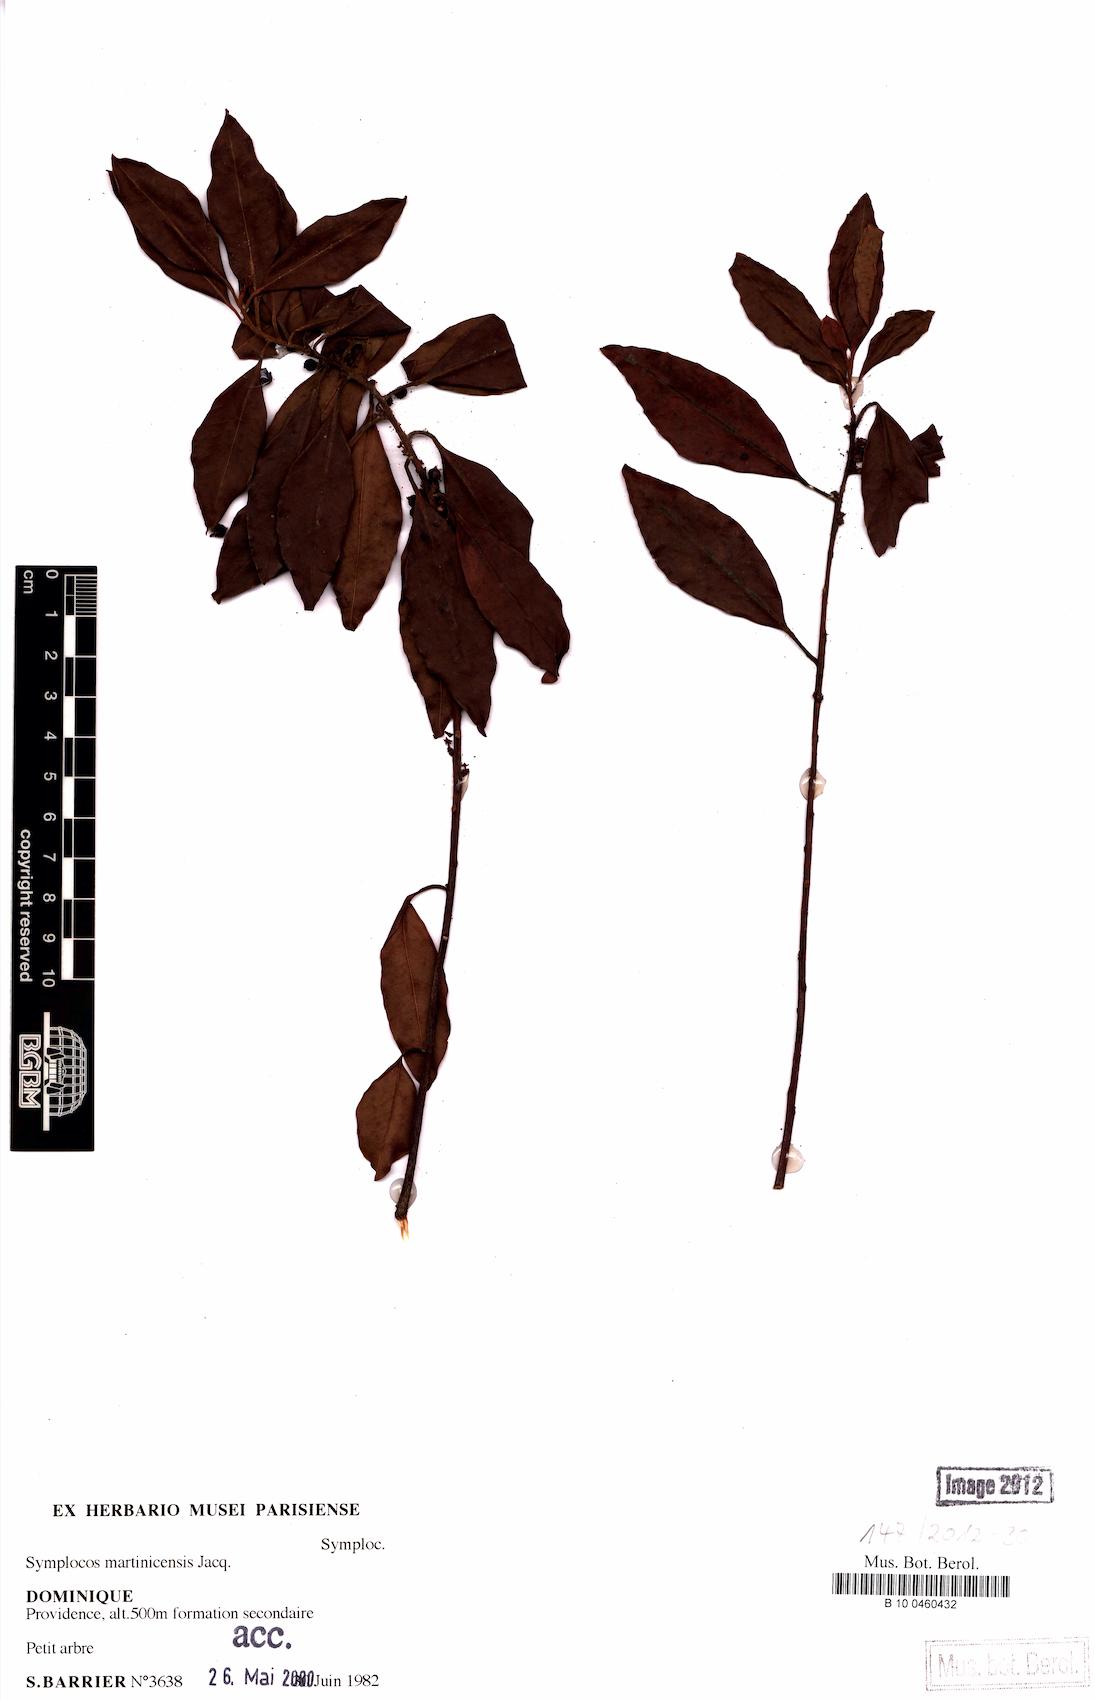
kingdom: Plantae
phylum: Tracheophyta
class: Magnoliopsida
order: Ericales
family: Symplocaceae
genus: Symplocos
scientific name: Symplocos martinicensis
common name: Blueberry
